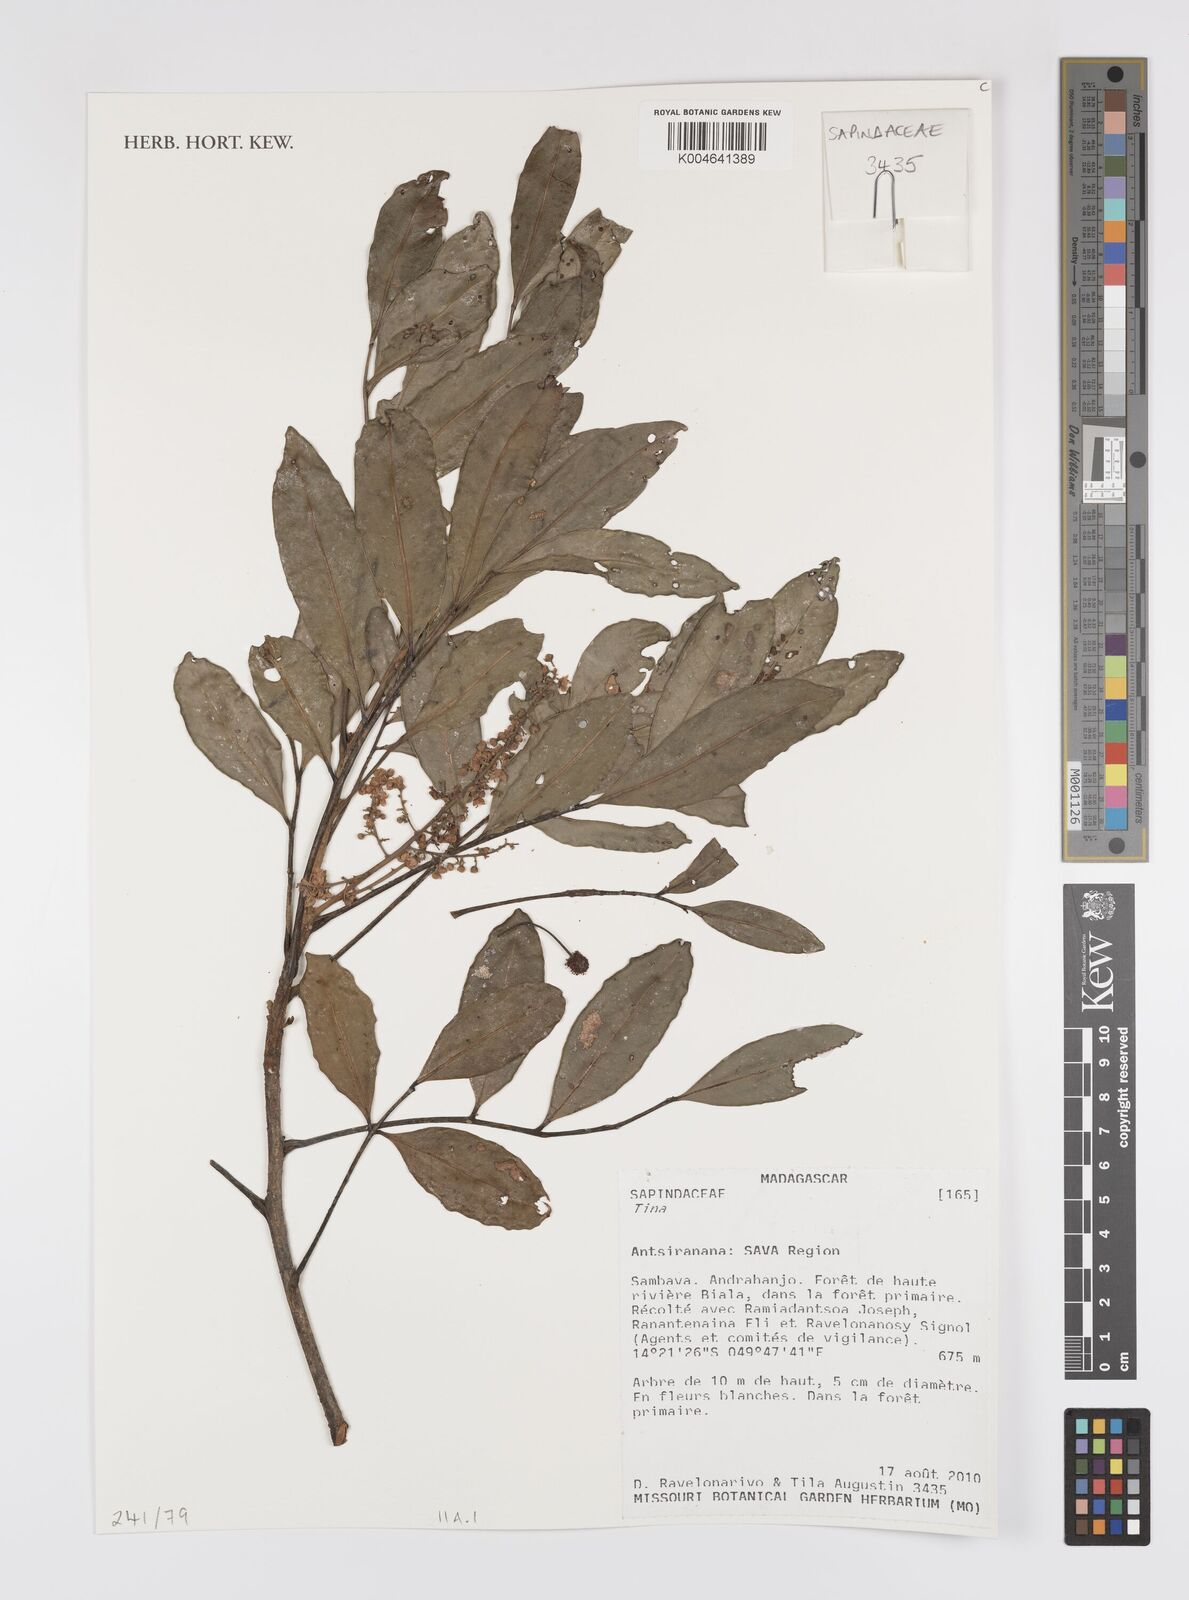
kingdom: Plantae
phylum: Tracheophyta
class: Magnoliopsida
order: Sapindales
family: Sapindaceae
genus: Tina
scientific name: Tina
